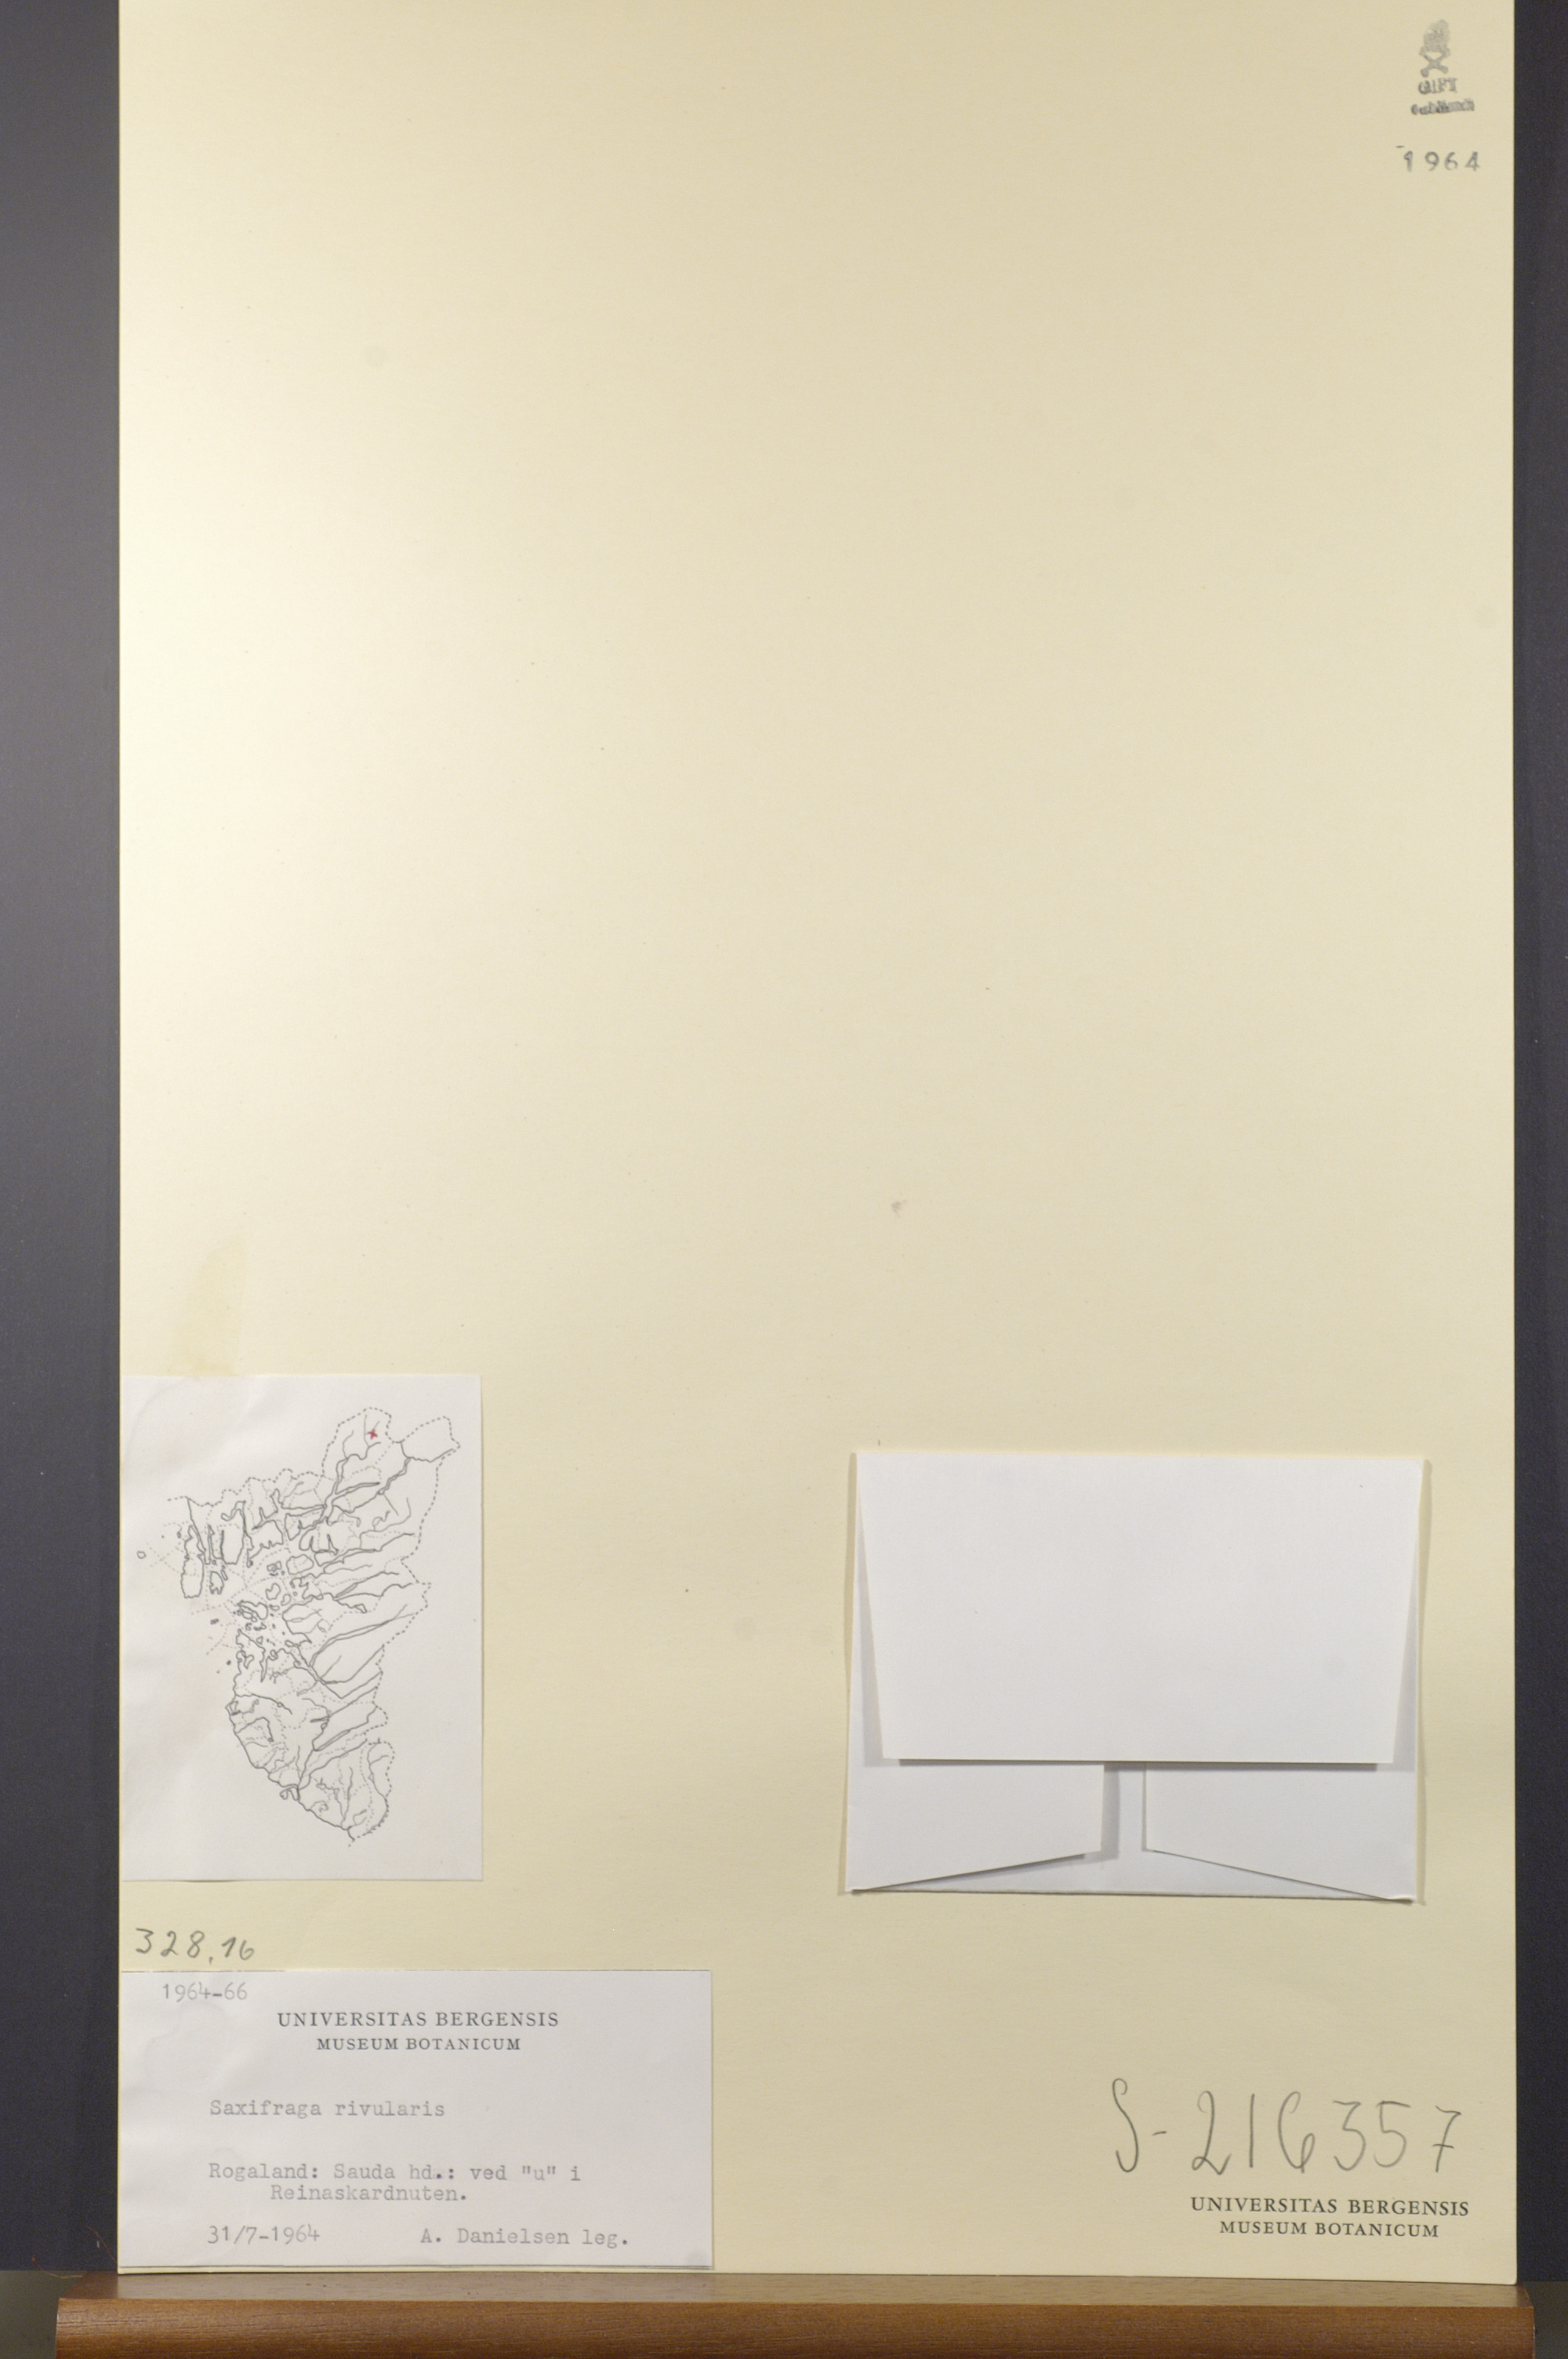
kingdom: Plantae
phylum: Tracheophyta
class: Magnoliopsida
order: Saxifragales
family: Saxifragaceae
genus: Saxifraga
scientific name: Saxifraga rivularis
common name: Highland saxifrage
